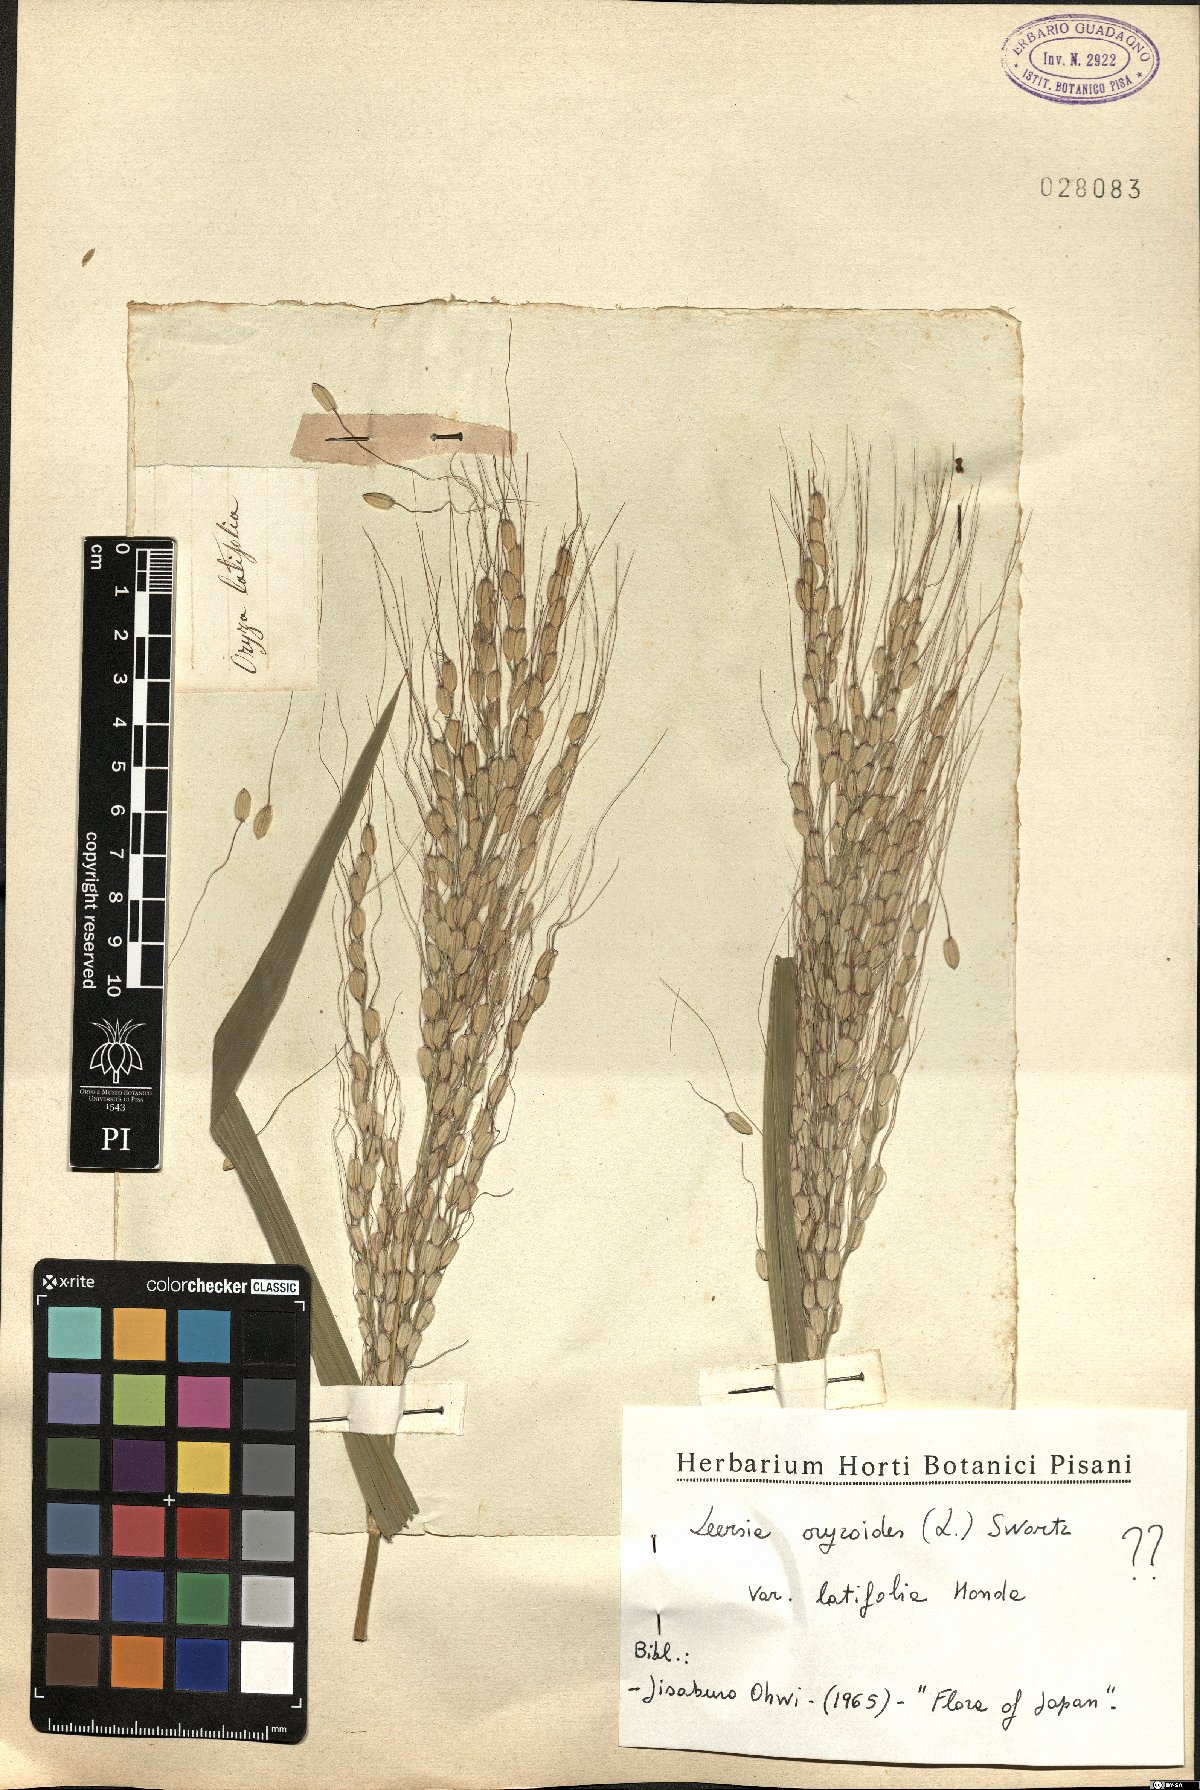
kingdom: Plantae
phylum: Tracheophyta
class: Liliopsida
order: Poales
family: Poaceae
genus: Leersia
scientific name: Leersia sayanuka
